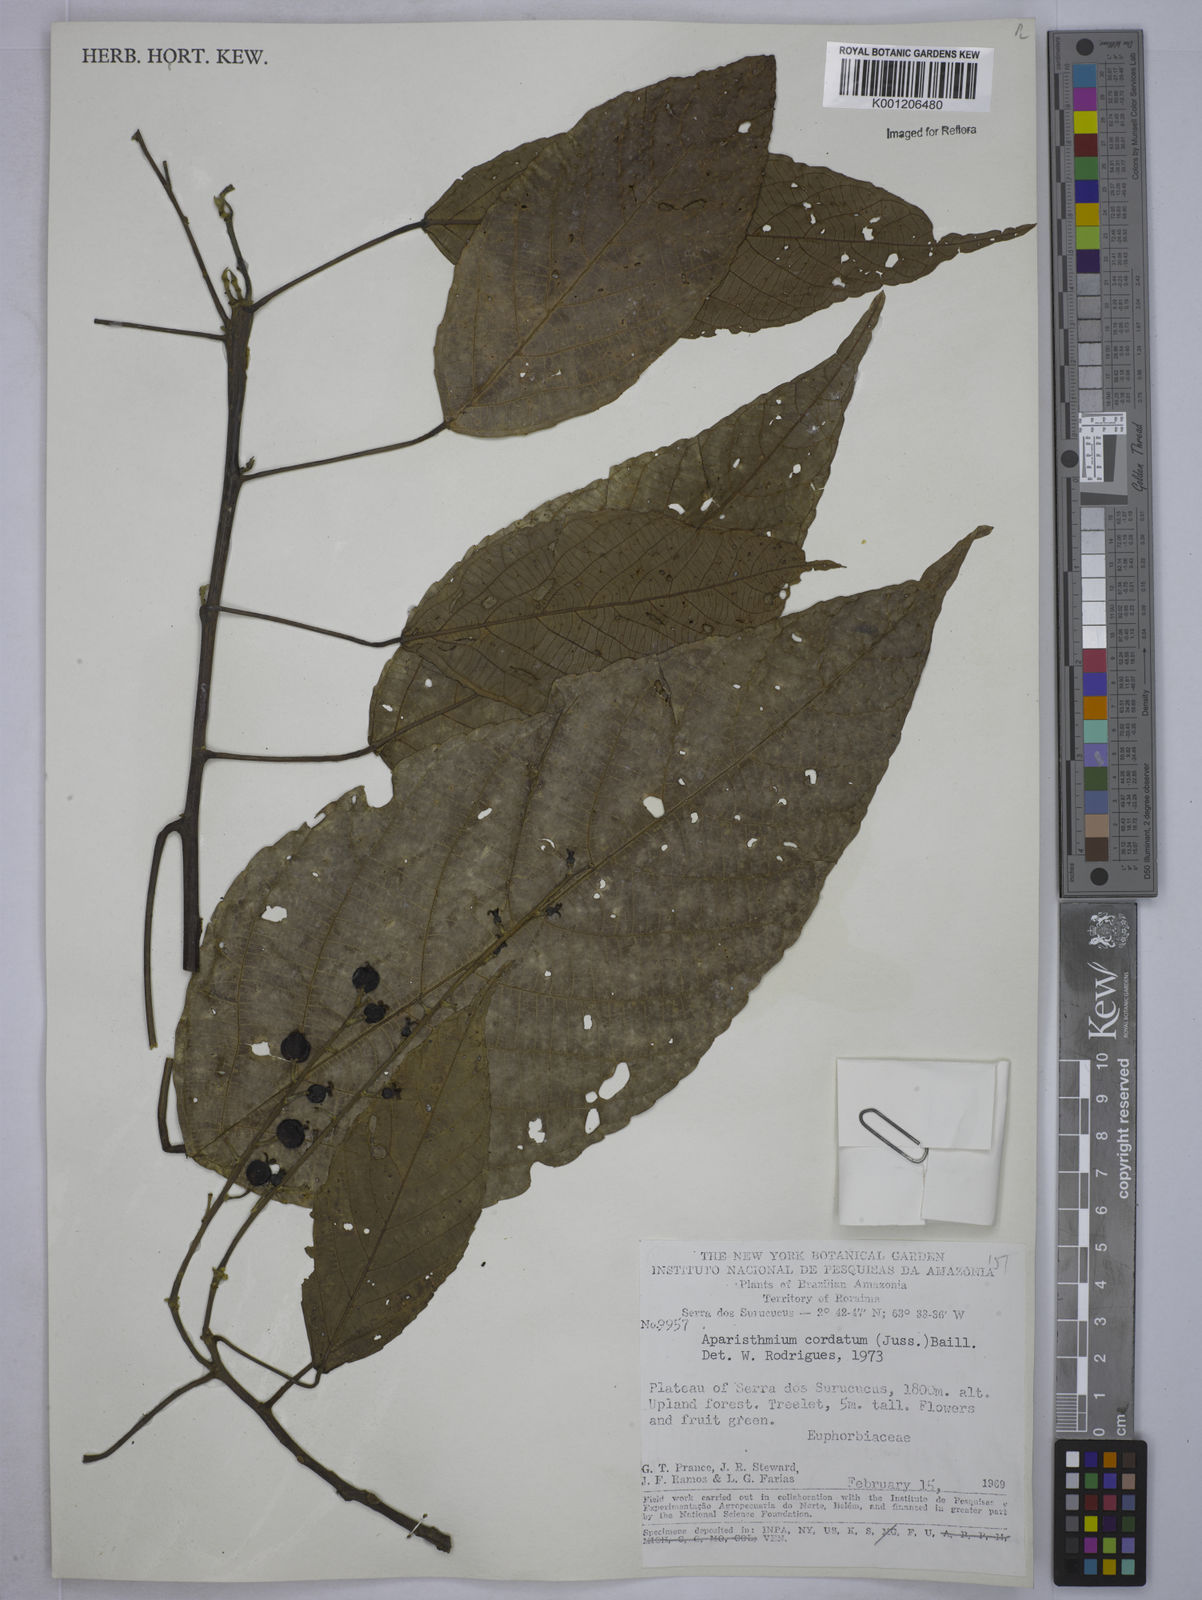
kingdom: Plantae
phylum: Tracheophyta
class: Magnoliopsida
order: Malpighiales
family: Euphorbiaceae
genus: Aparisthmium
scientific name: Aparisthmium cordatum
